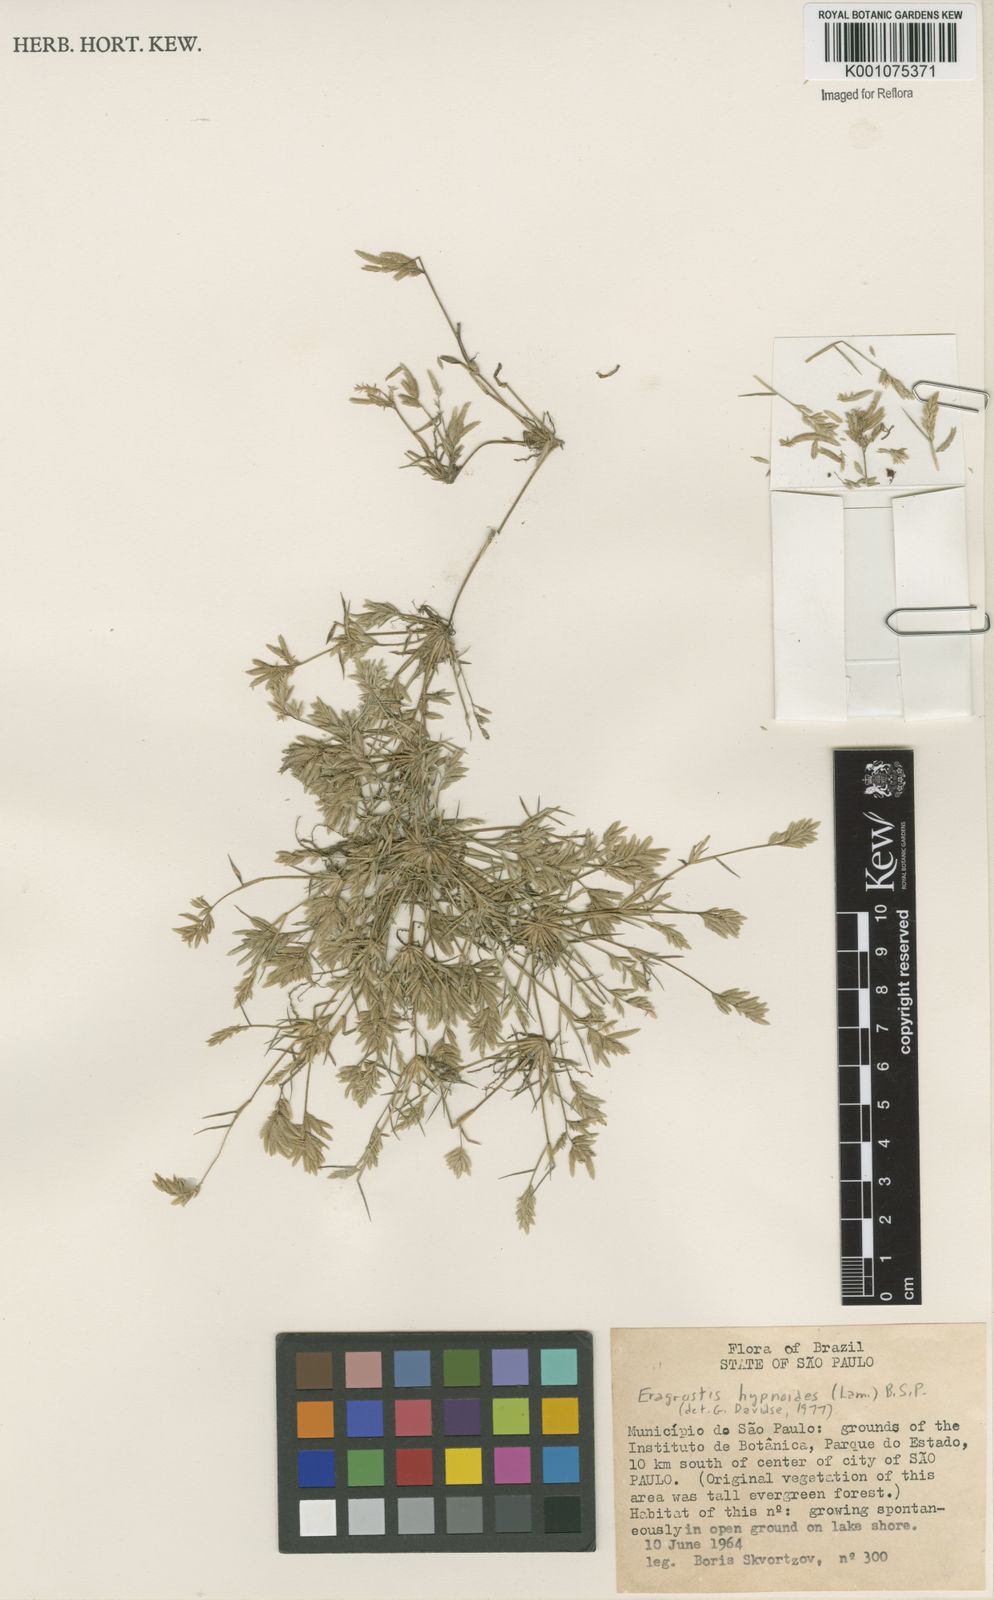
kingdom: Plantae
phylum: Tracheophyta
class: Liliopsida
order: Poales
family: Poaceae
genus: Eragrostis
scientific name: Eragrostis
